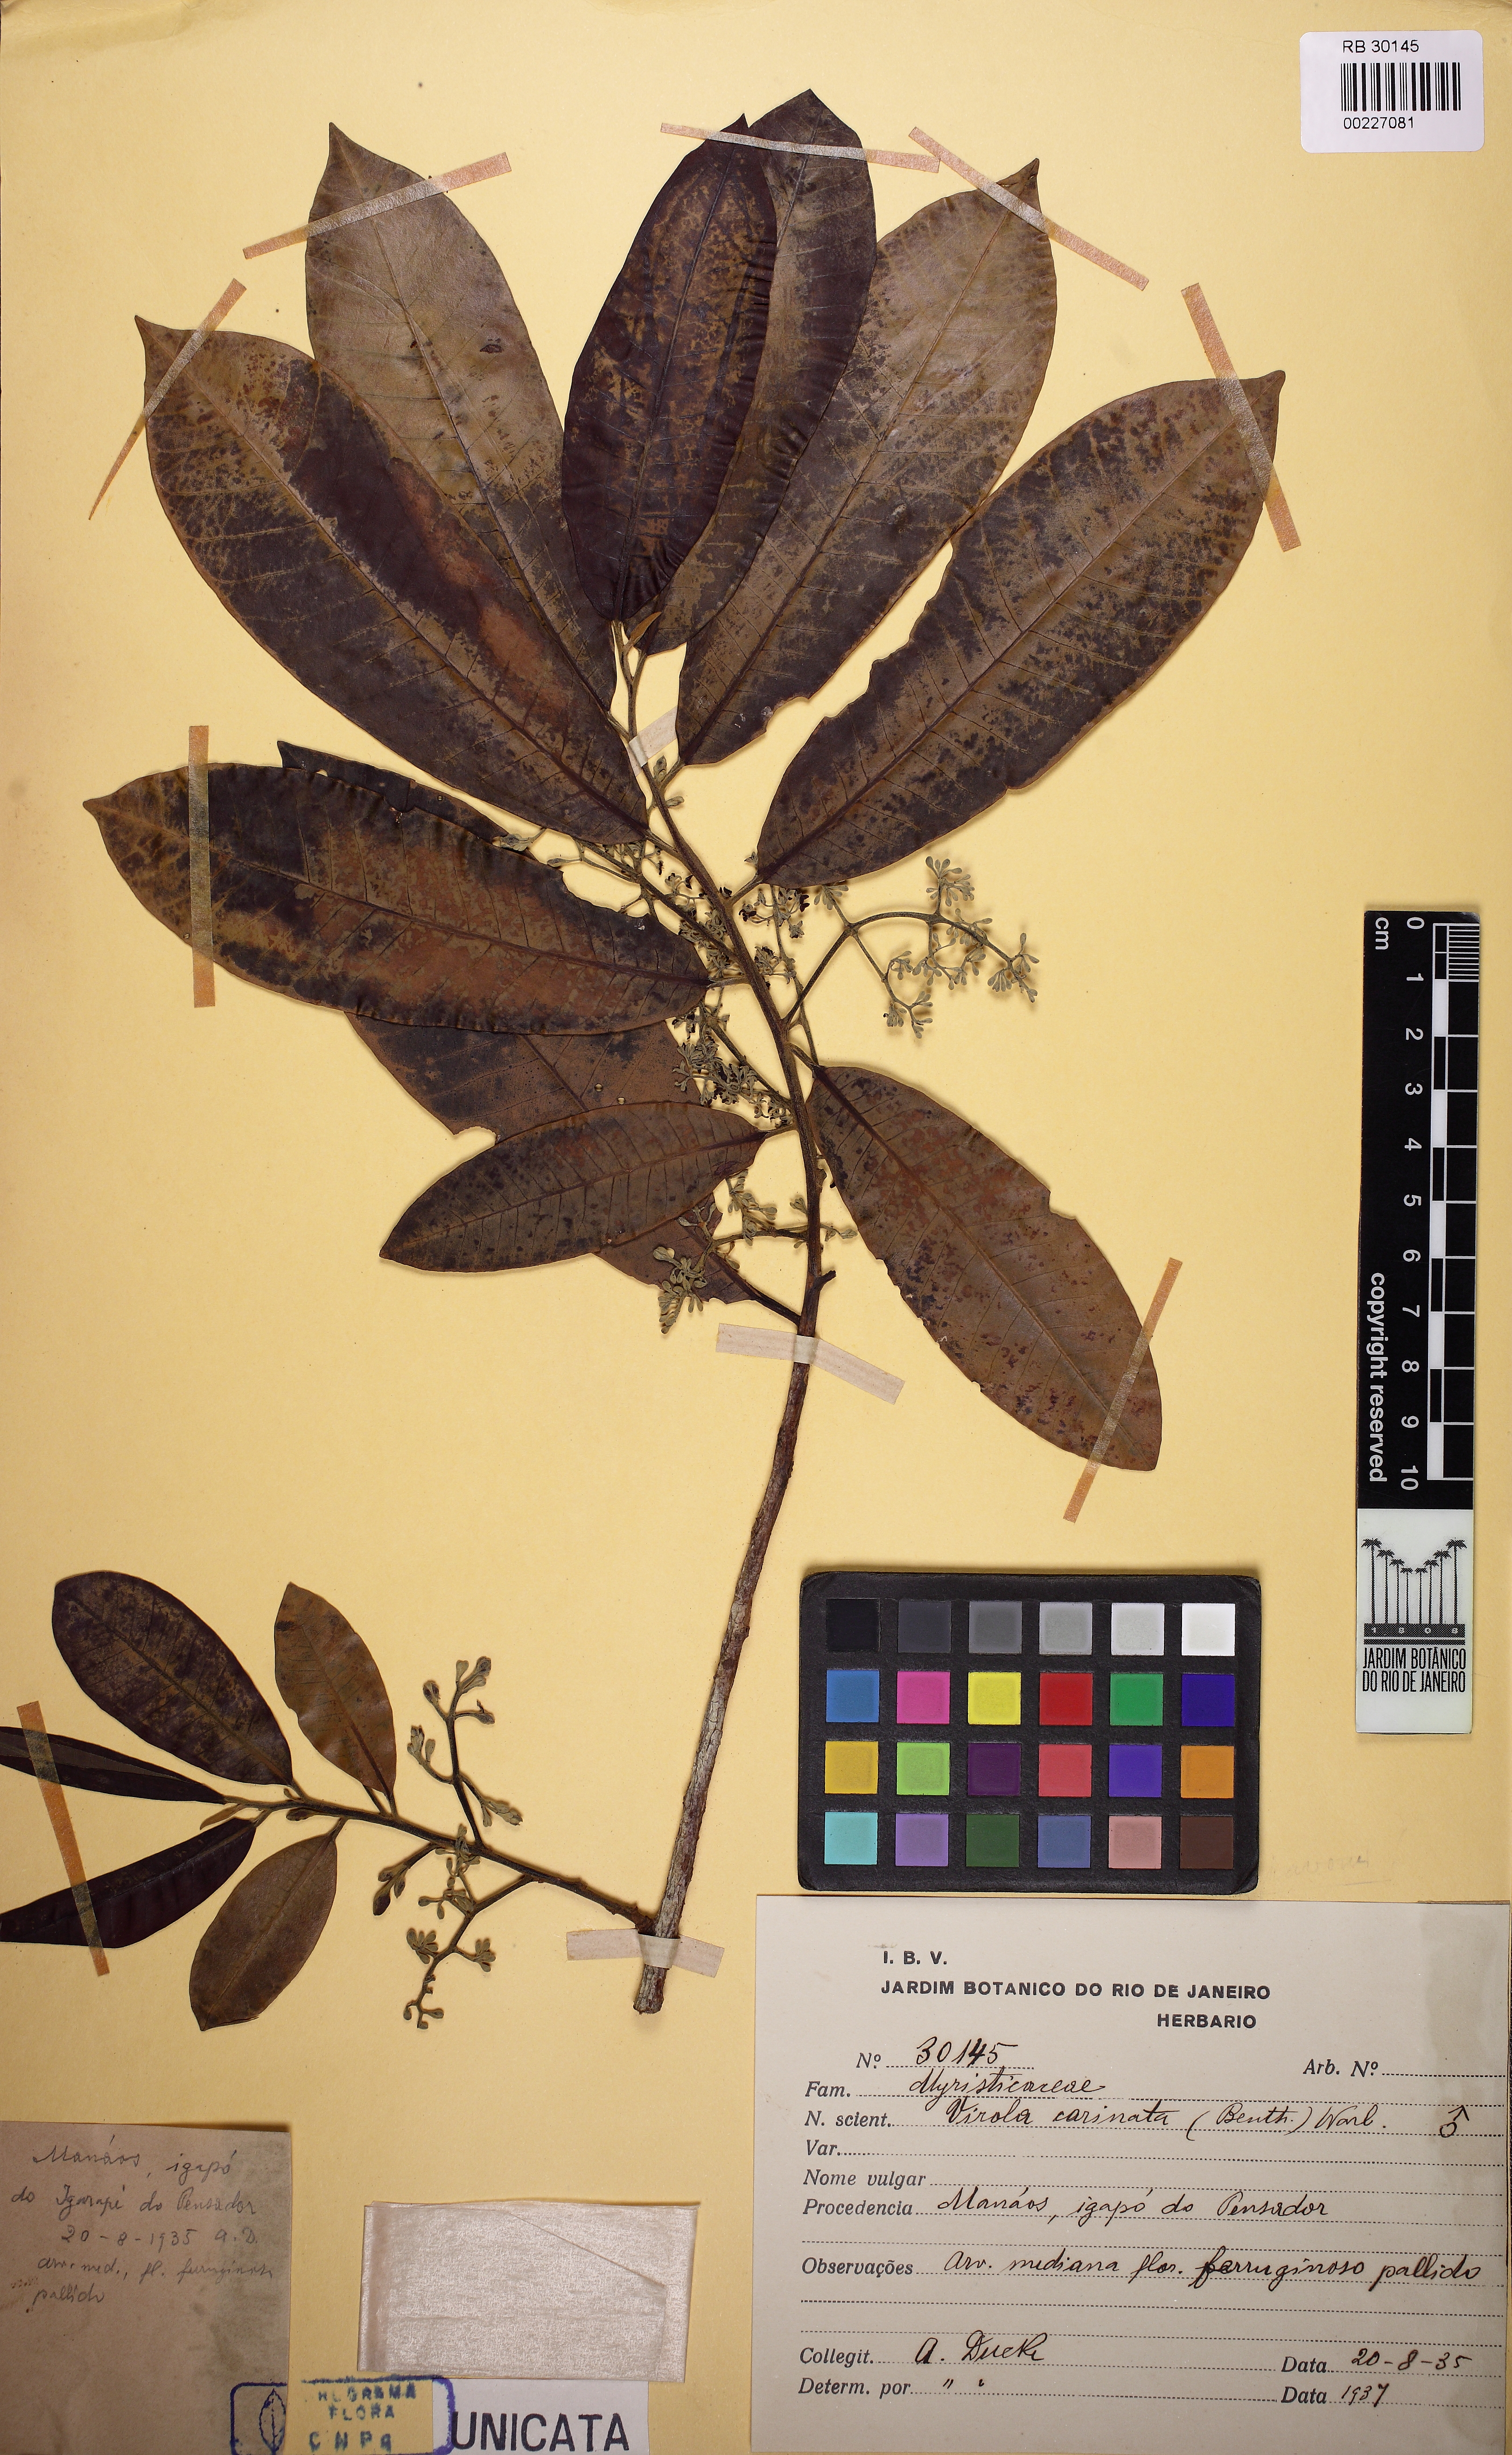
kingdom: Plantae
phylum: Tracheophyta
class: Magnoliopsida
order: Magnoliales
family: Myristicaceae
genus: Virola
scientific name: Virola carinata
